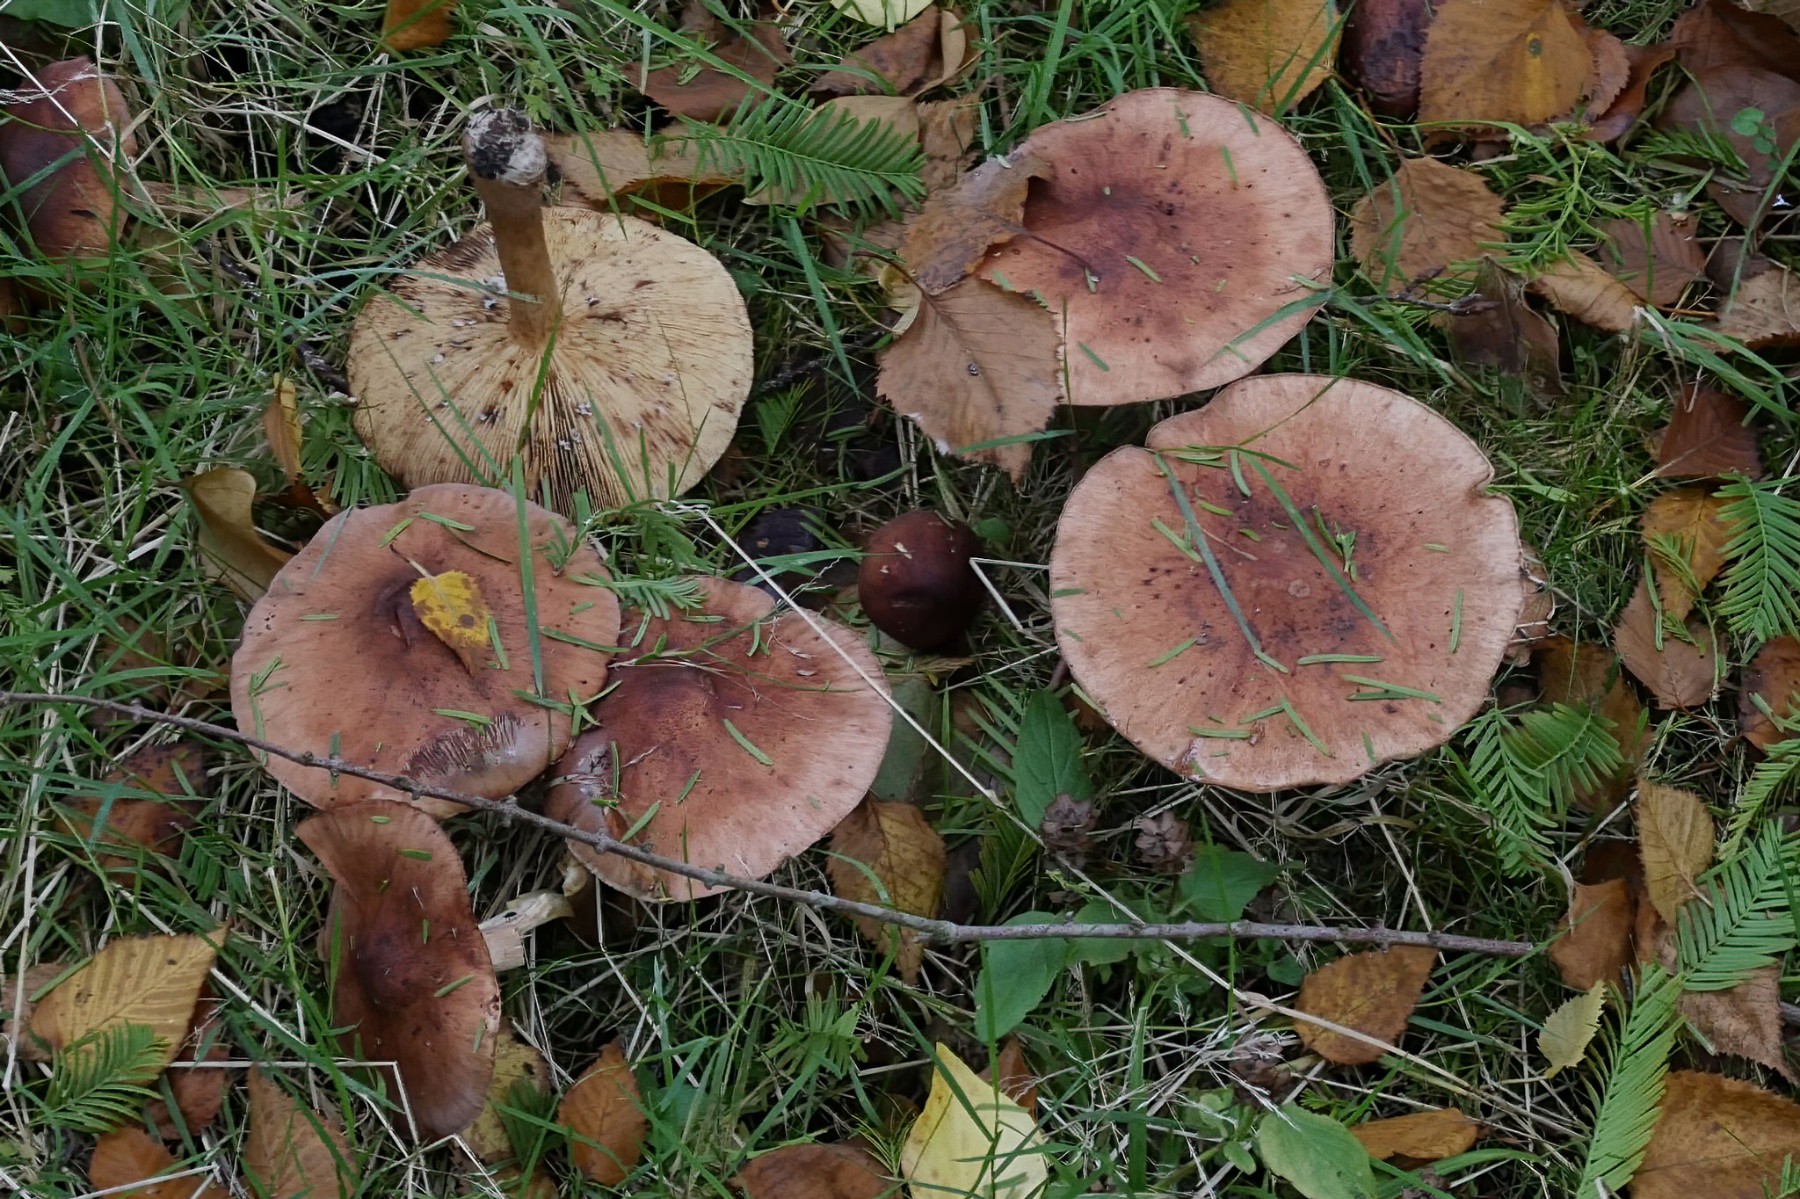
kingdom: Fungi
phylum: Basidiomycota
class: Agaricomycetes
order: Agaricales
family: Tricholomataceae
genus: Tricholoma
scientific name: Tricholoma fulvum
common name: birke-ridderhat
